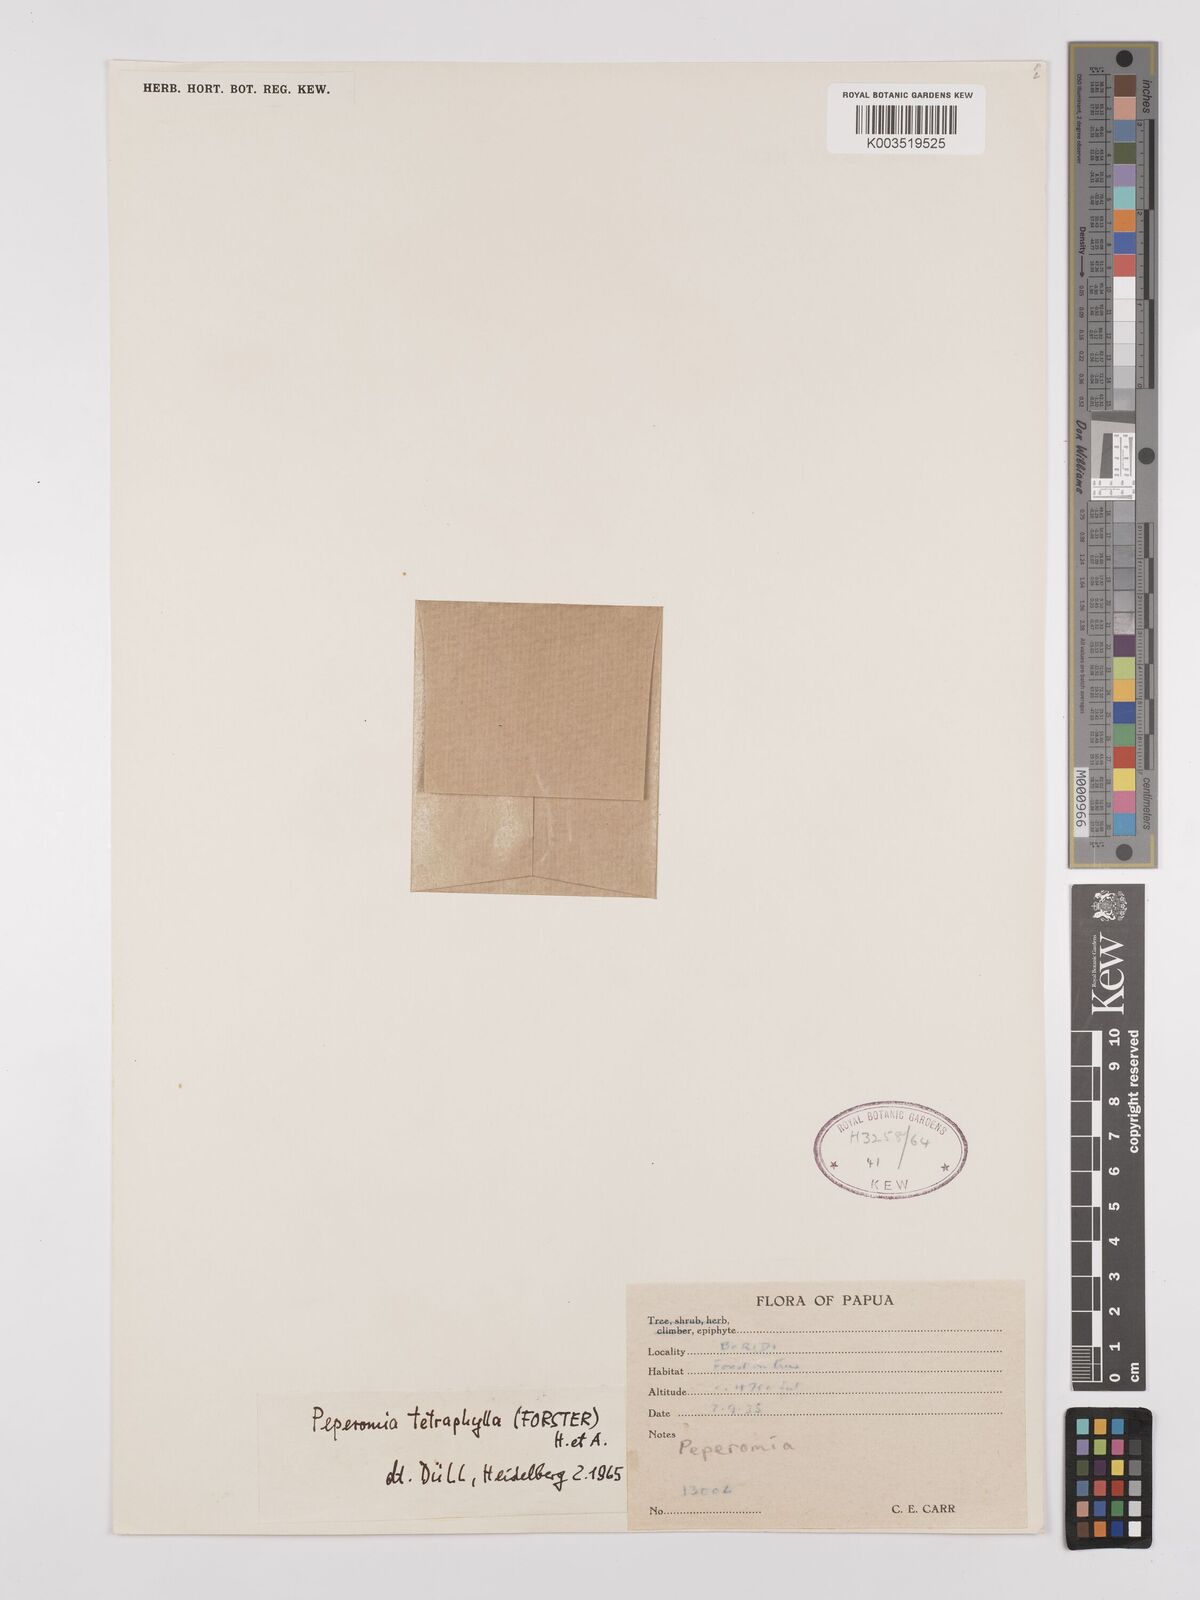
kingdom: Plantae
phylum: Tracheophyta
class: Magnoliopsida
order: Piperales
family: Piperaceae
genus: Peperomia
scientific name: Peperomia tetraphylla
